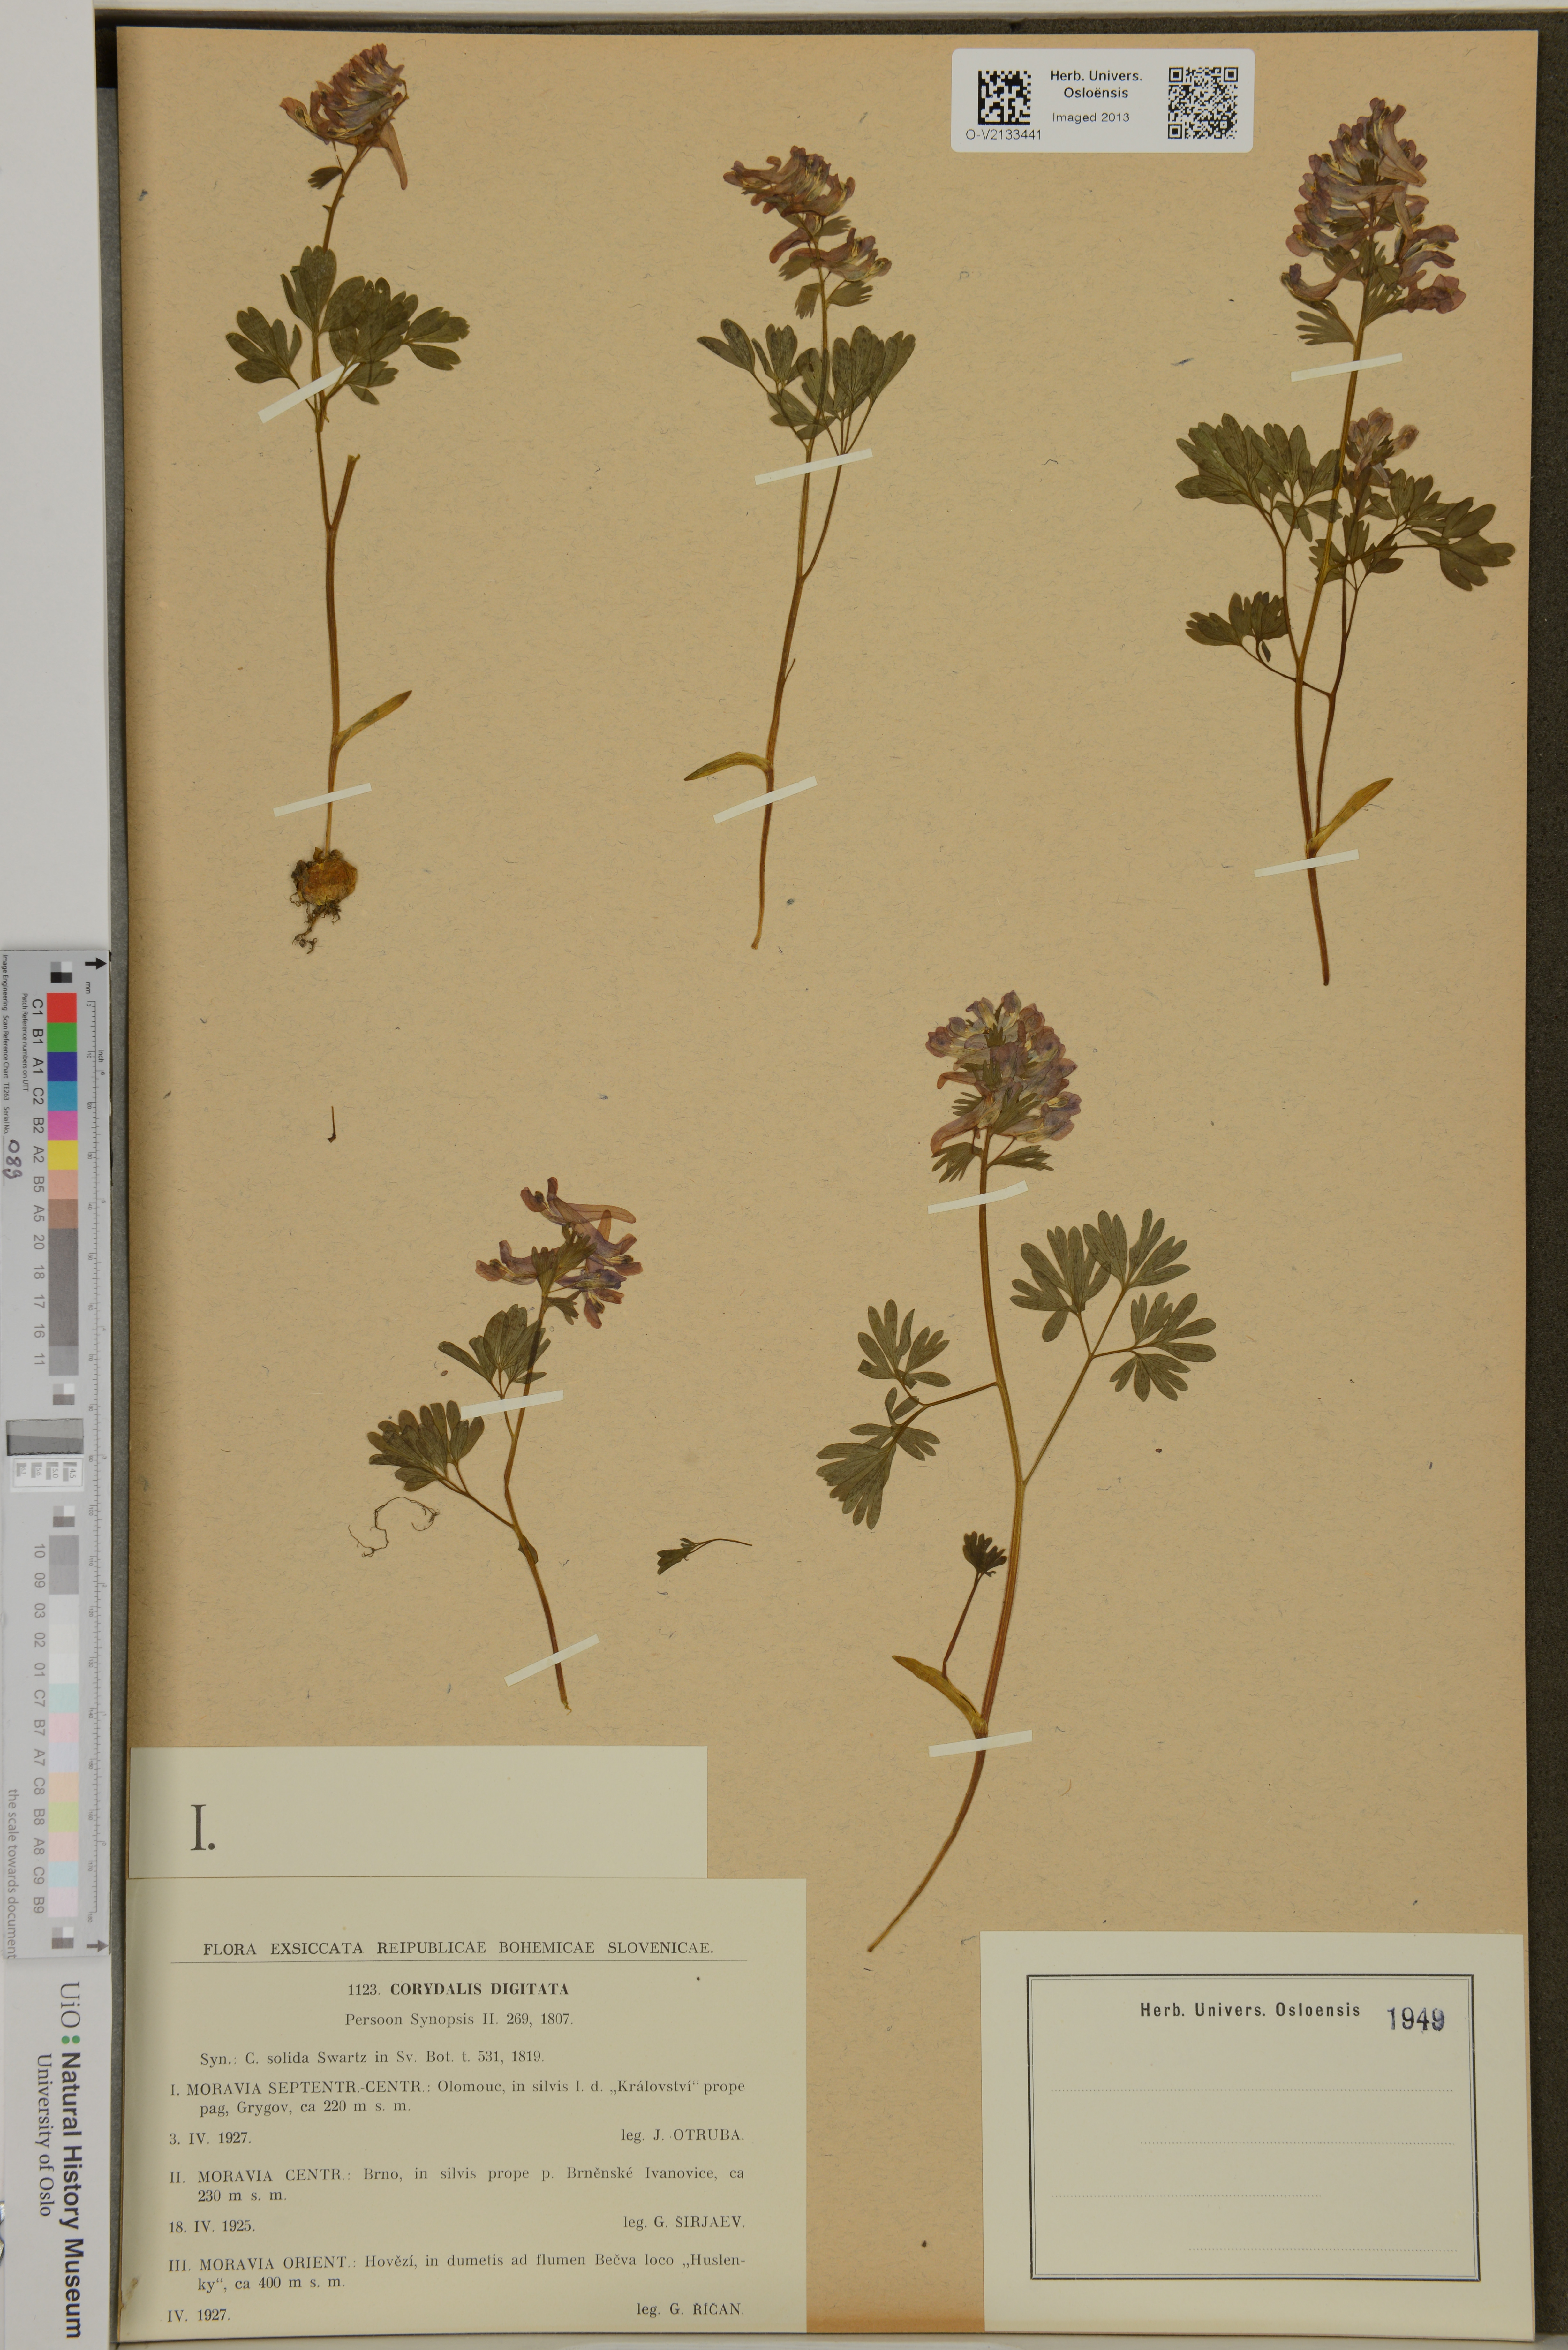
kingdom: Plantae
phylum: Tracheophyta
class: Magnoliopsida
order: Ranunculales
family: Papaveraceae
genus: Corydalis
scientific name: Corydalis solida
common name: Bird-in-a-bush
